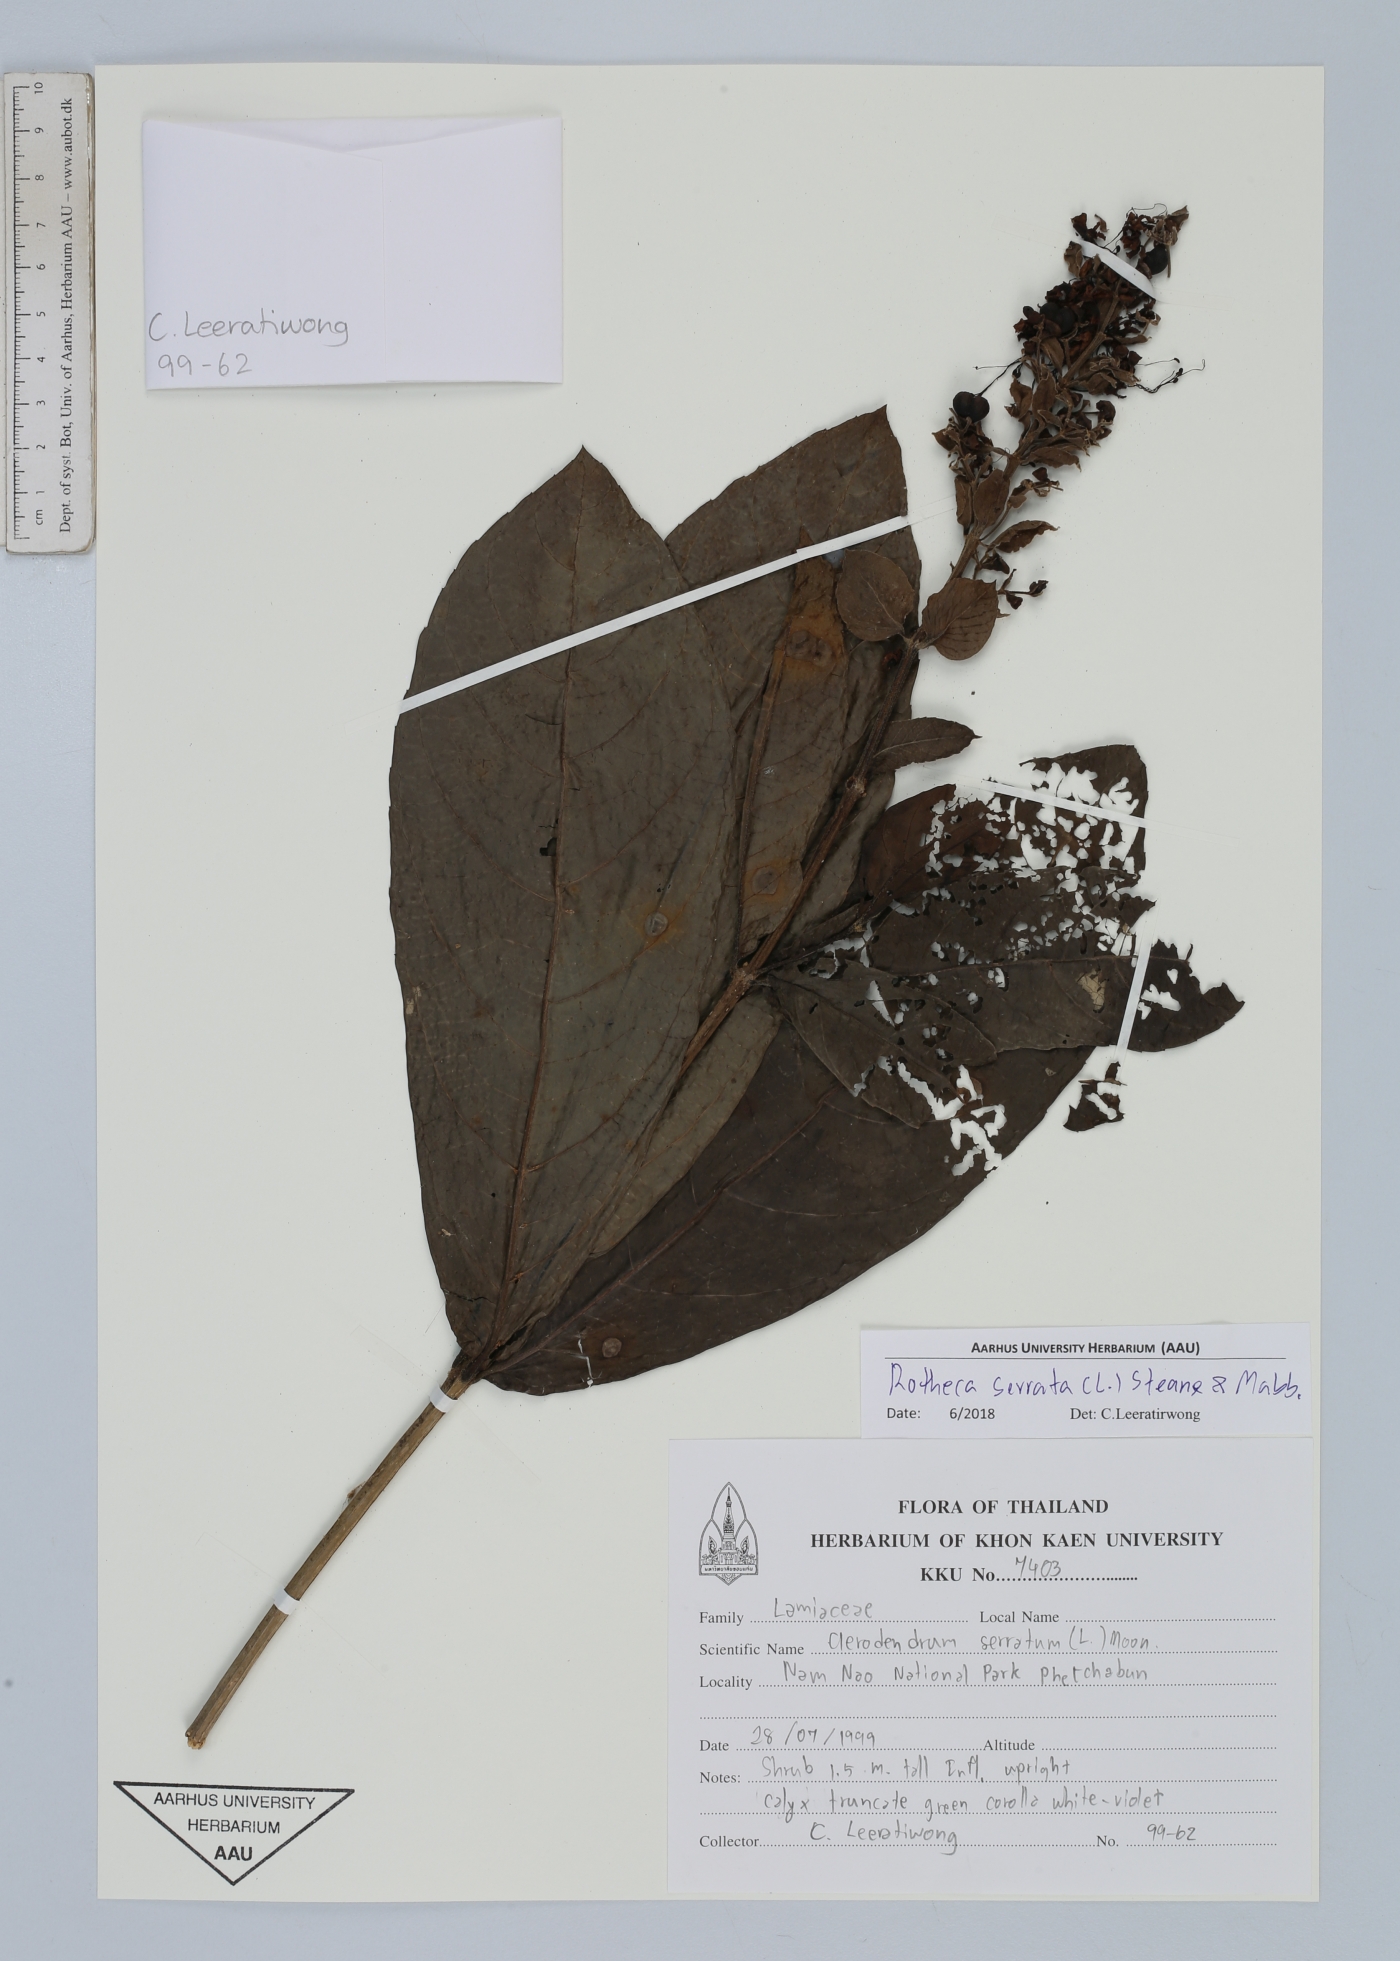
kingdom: Plantae
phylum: Tracheophyta
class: Magnoliopsida
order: Lamiales
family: Lamiaceae
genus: Rotheca
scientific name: Rotheca serrata
